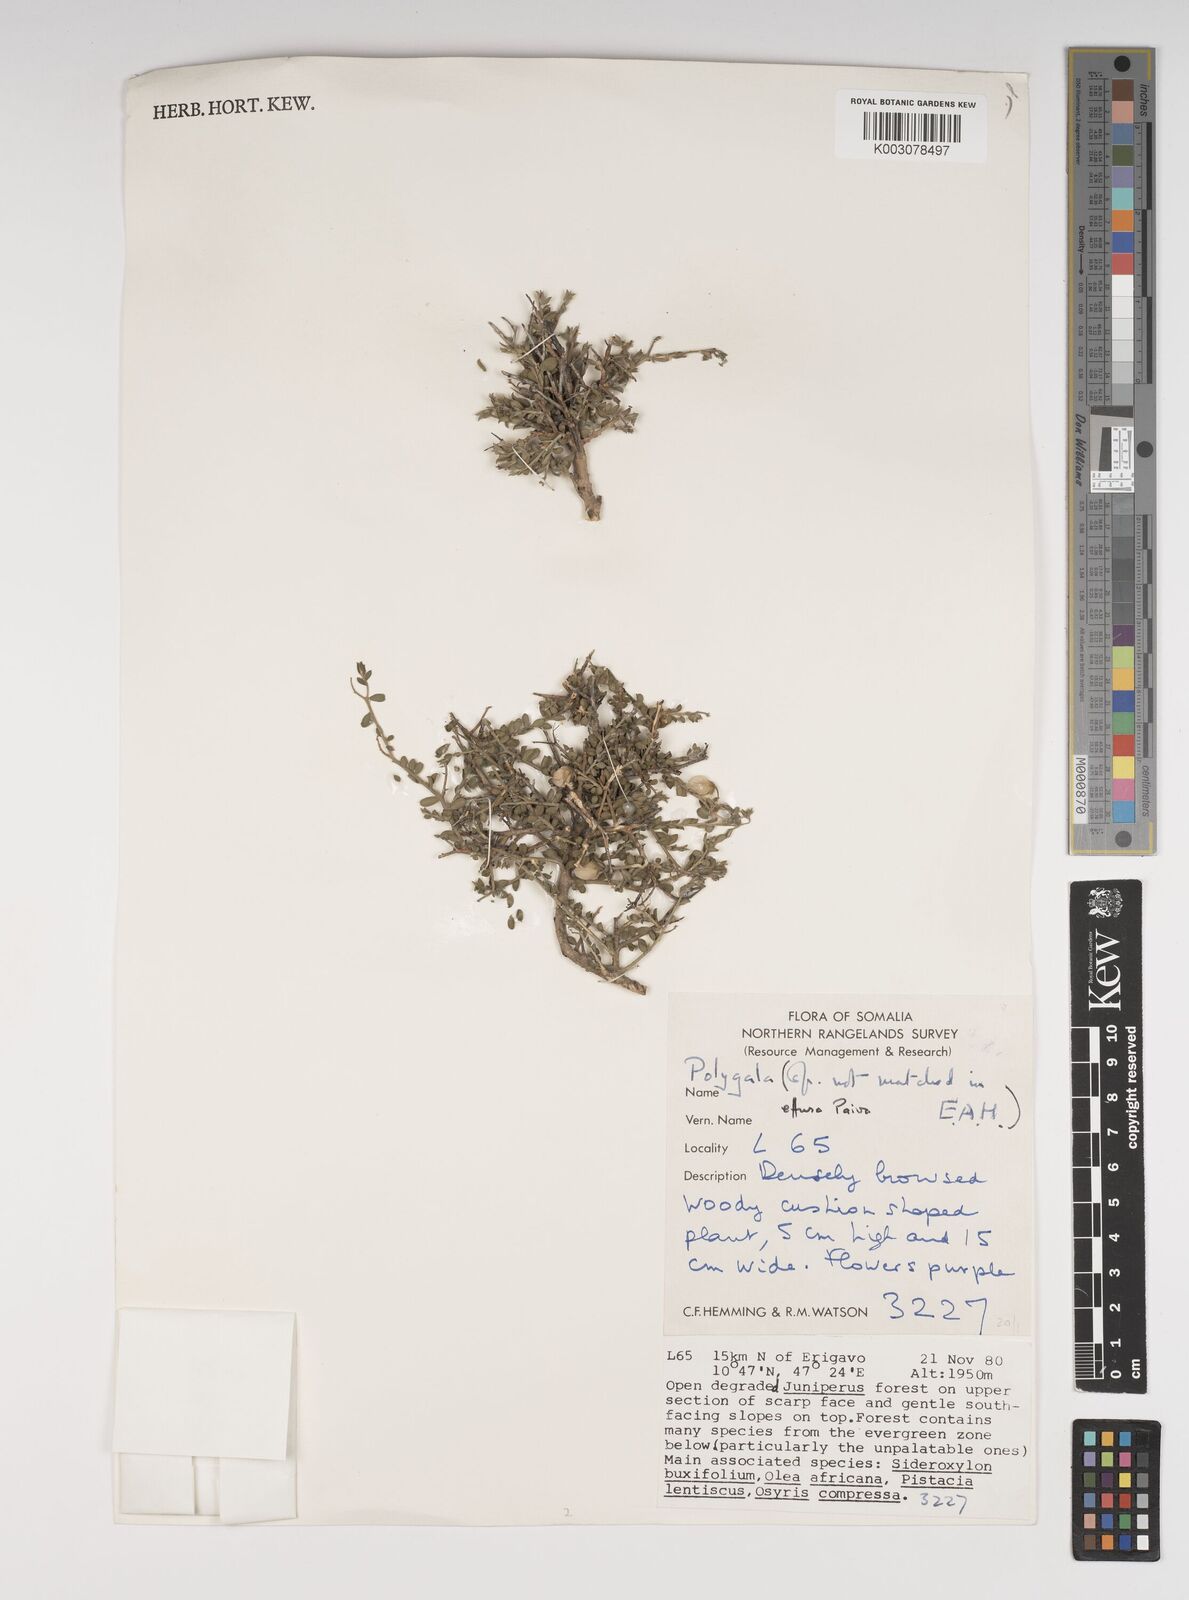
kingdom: Plantae
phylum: Tracheophyta
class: Magnoliopsida
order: Fabales
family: Polygalaceae
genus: Polygala
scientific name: Polygala effusa
